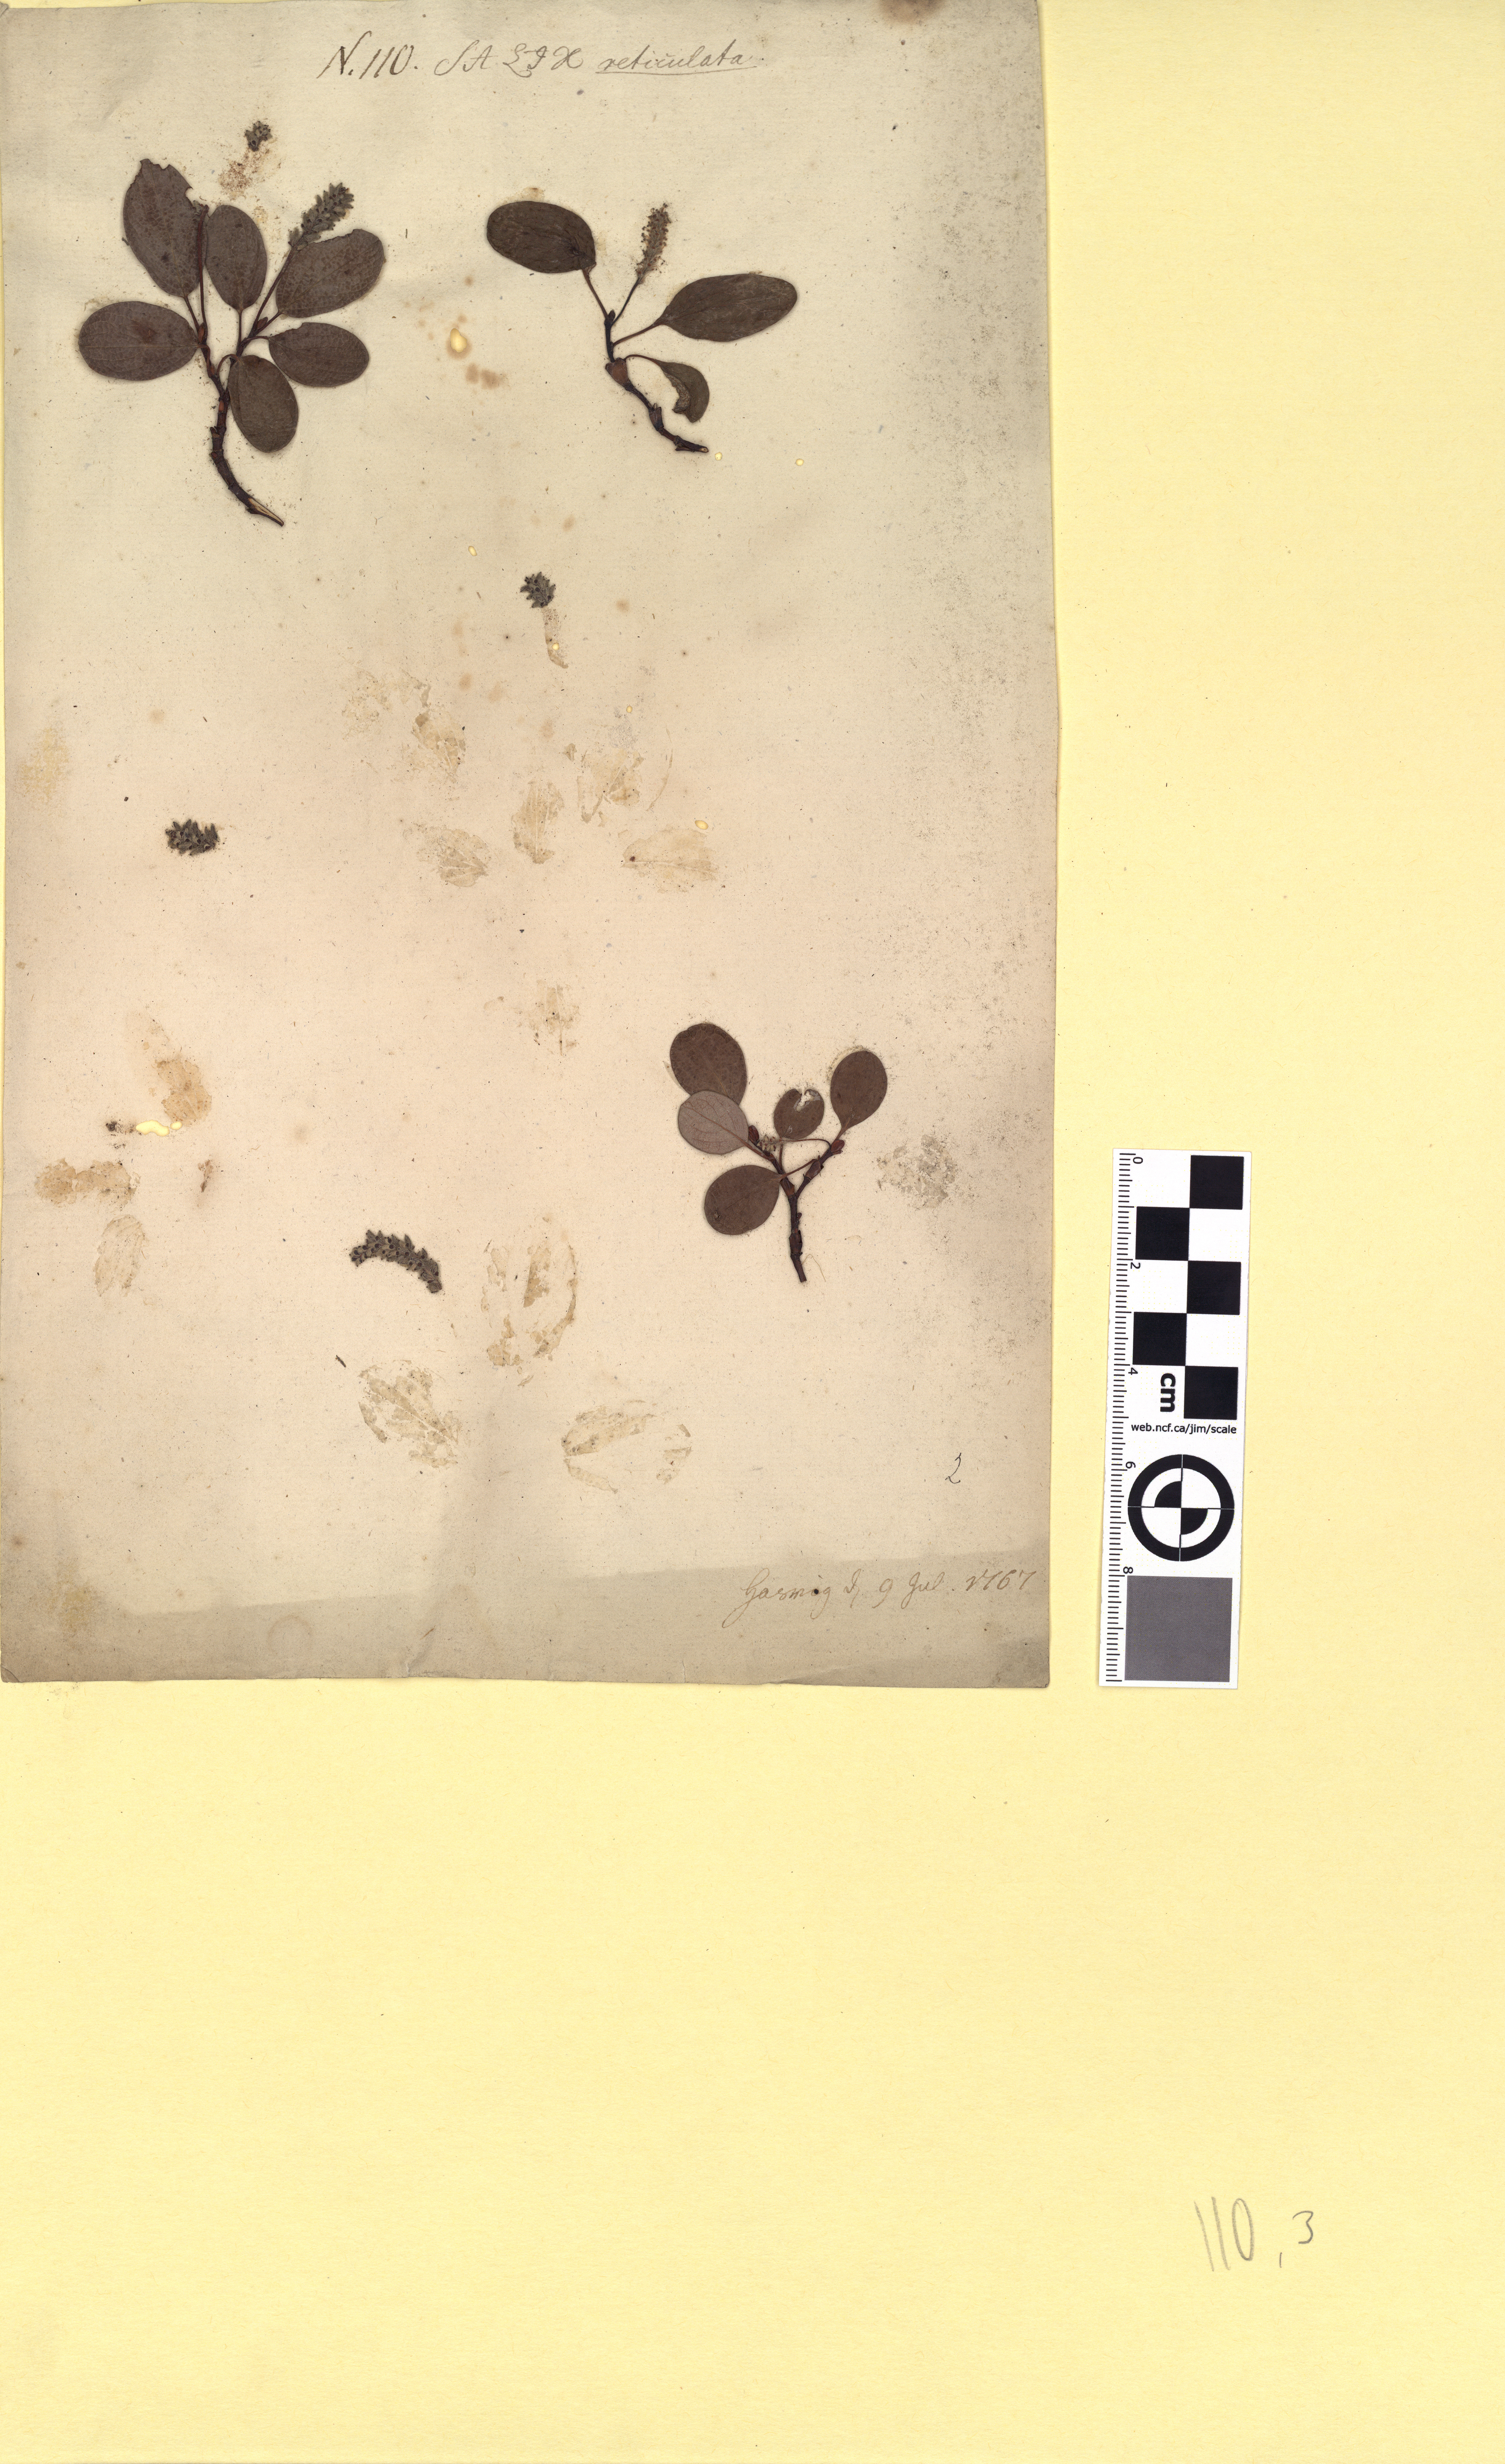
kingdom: Plantae
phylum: Tracheophyta
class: Magnoliopsida
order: Malpighiales
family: Salicaceae
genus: Salix
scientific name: Salix reticulata
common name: Net-leaved willow
